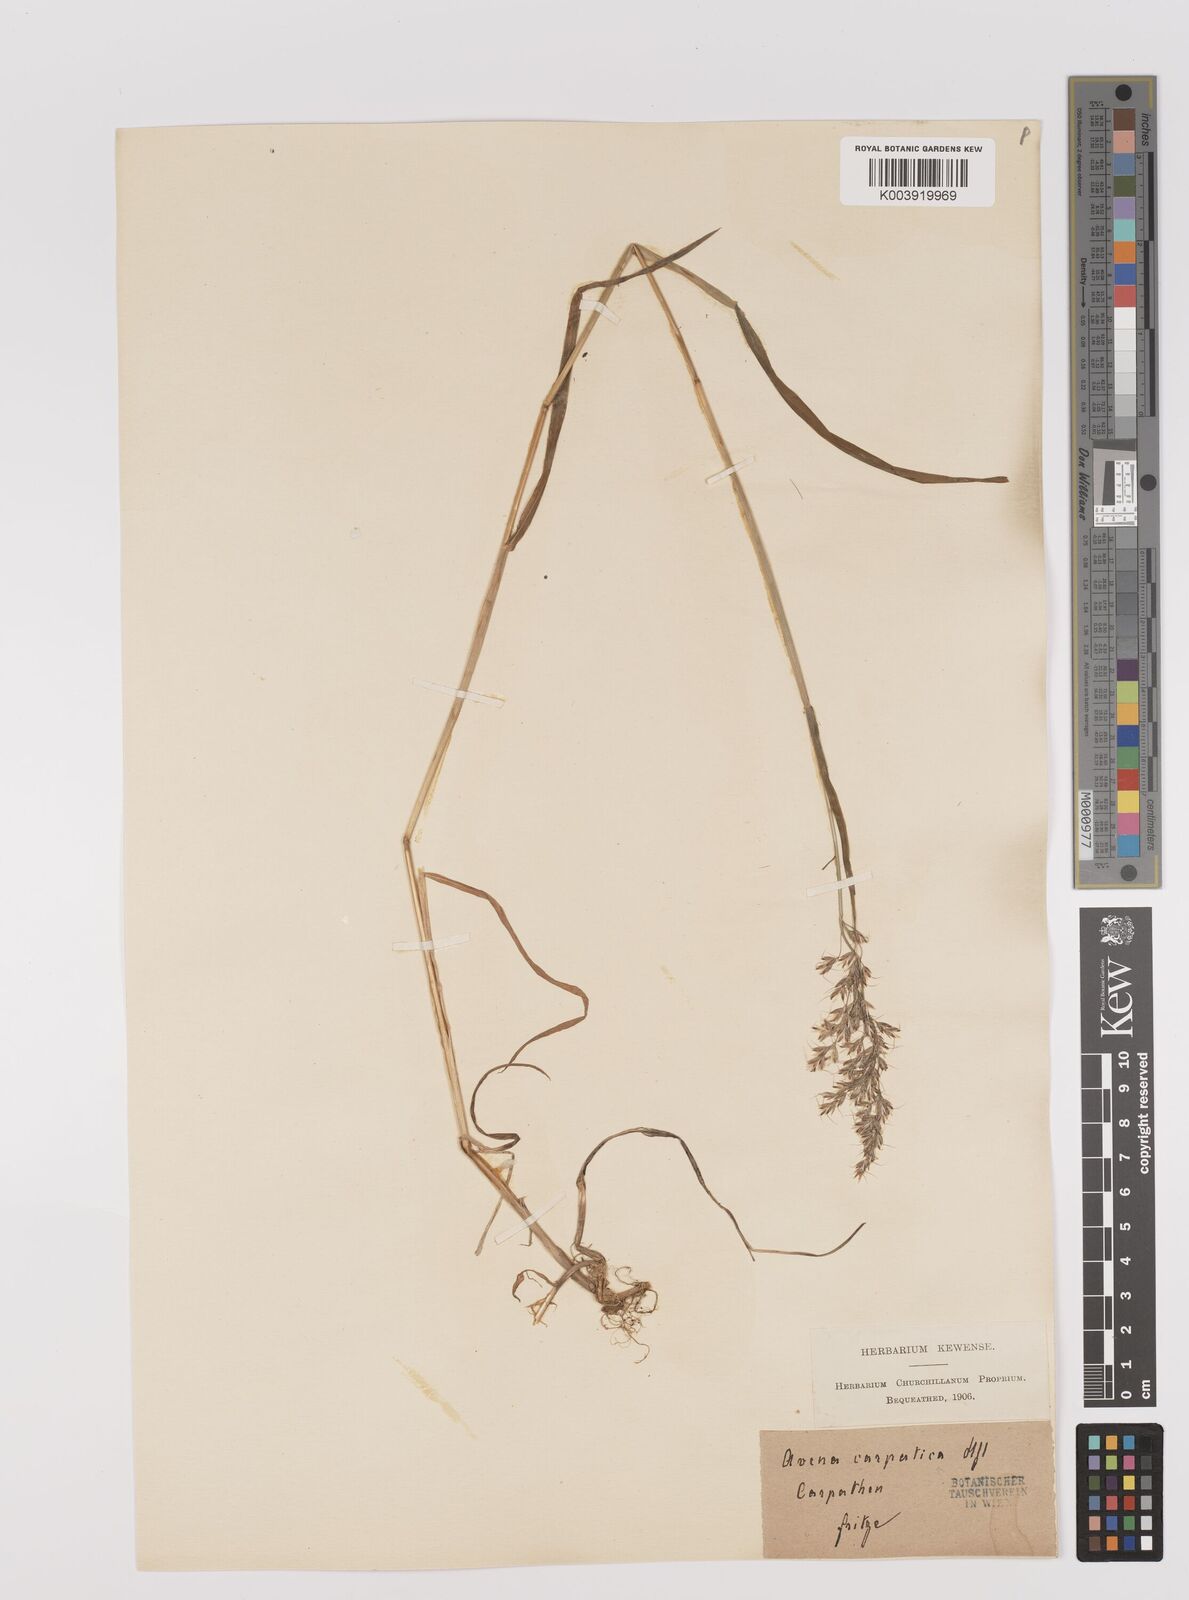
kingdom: Plantae
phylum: Tracheophyta
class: Liliopsida
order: Poales
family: Poaceae
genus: Trisetum
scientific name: Trisetum fuscum
